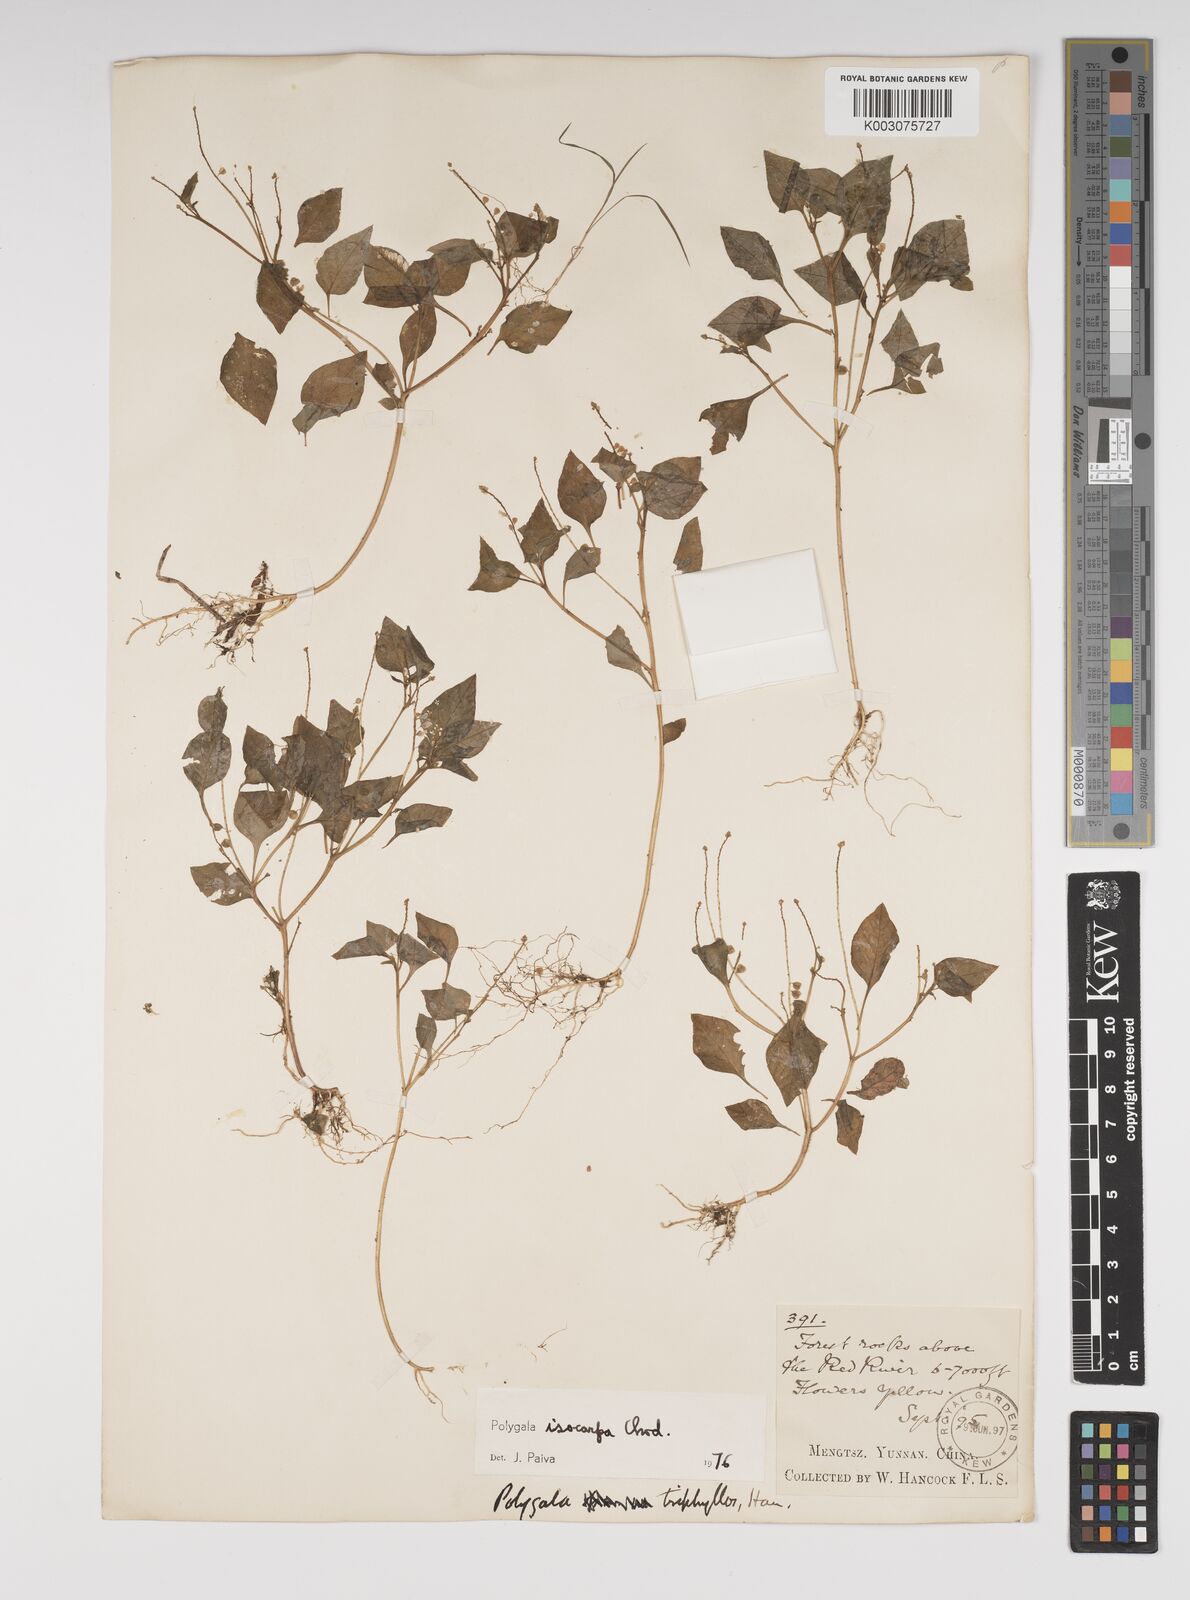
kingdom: Plantae
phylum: Tracheophyta
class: Magnoliopsida
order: Fabales
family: Polygalaceae
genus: Polygala
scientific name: Polygala isocarpa
